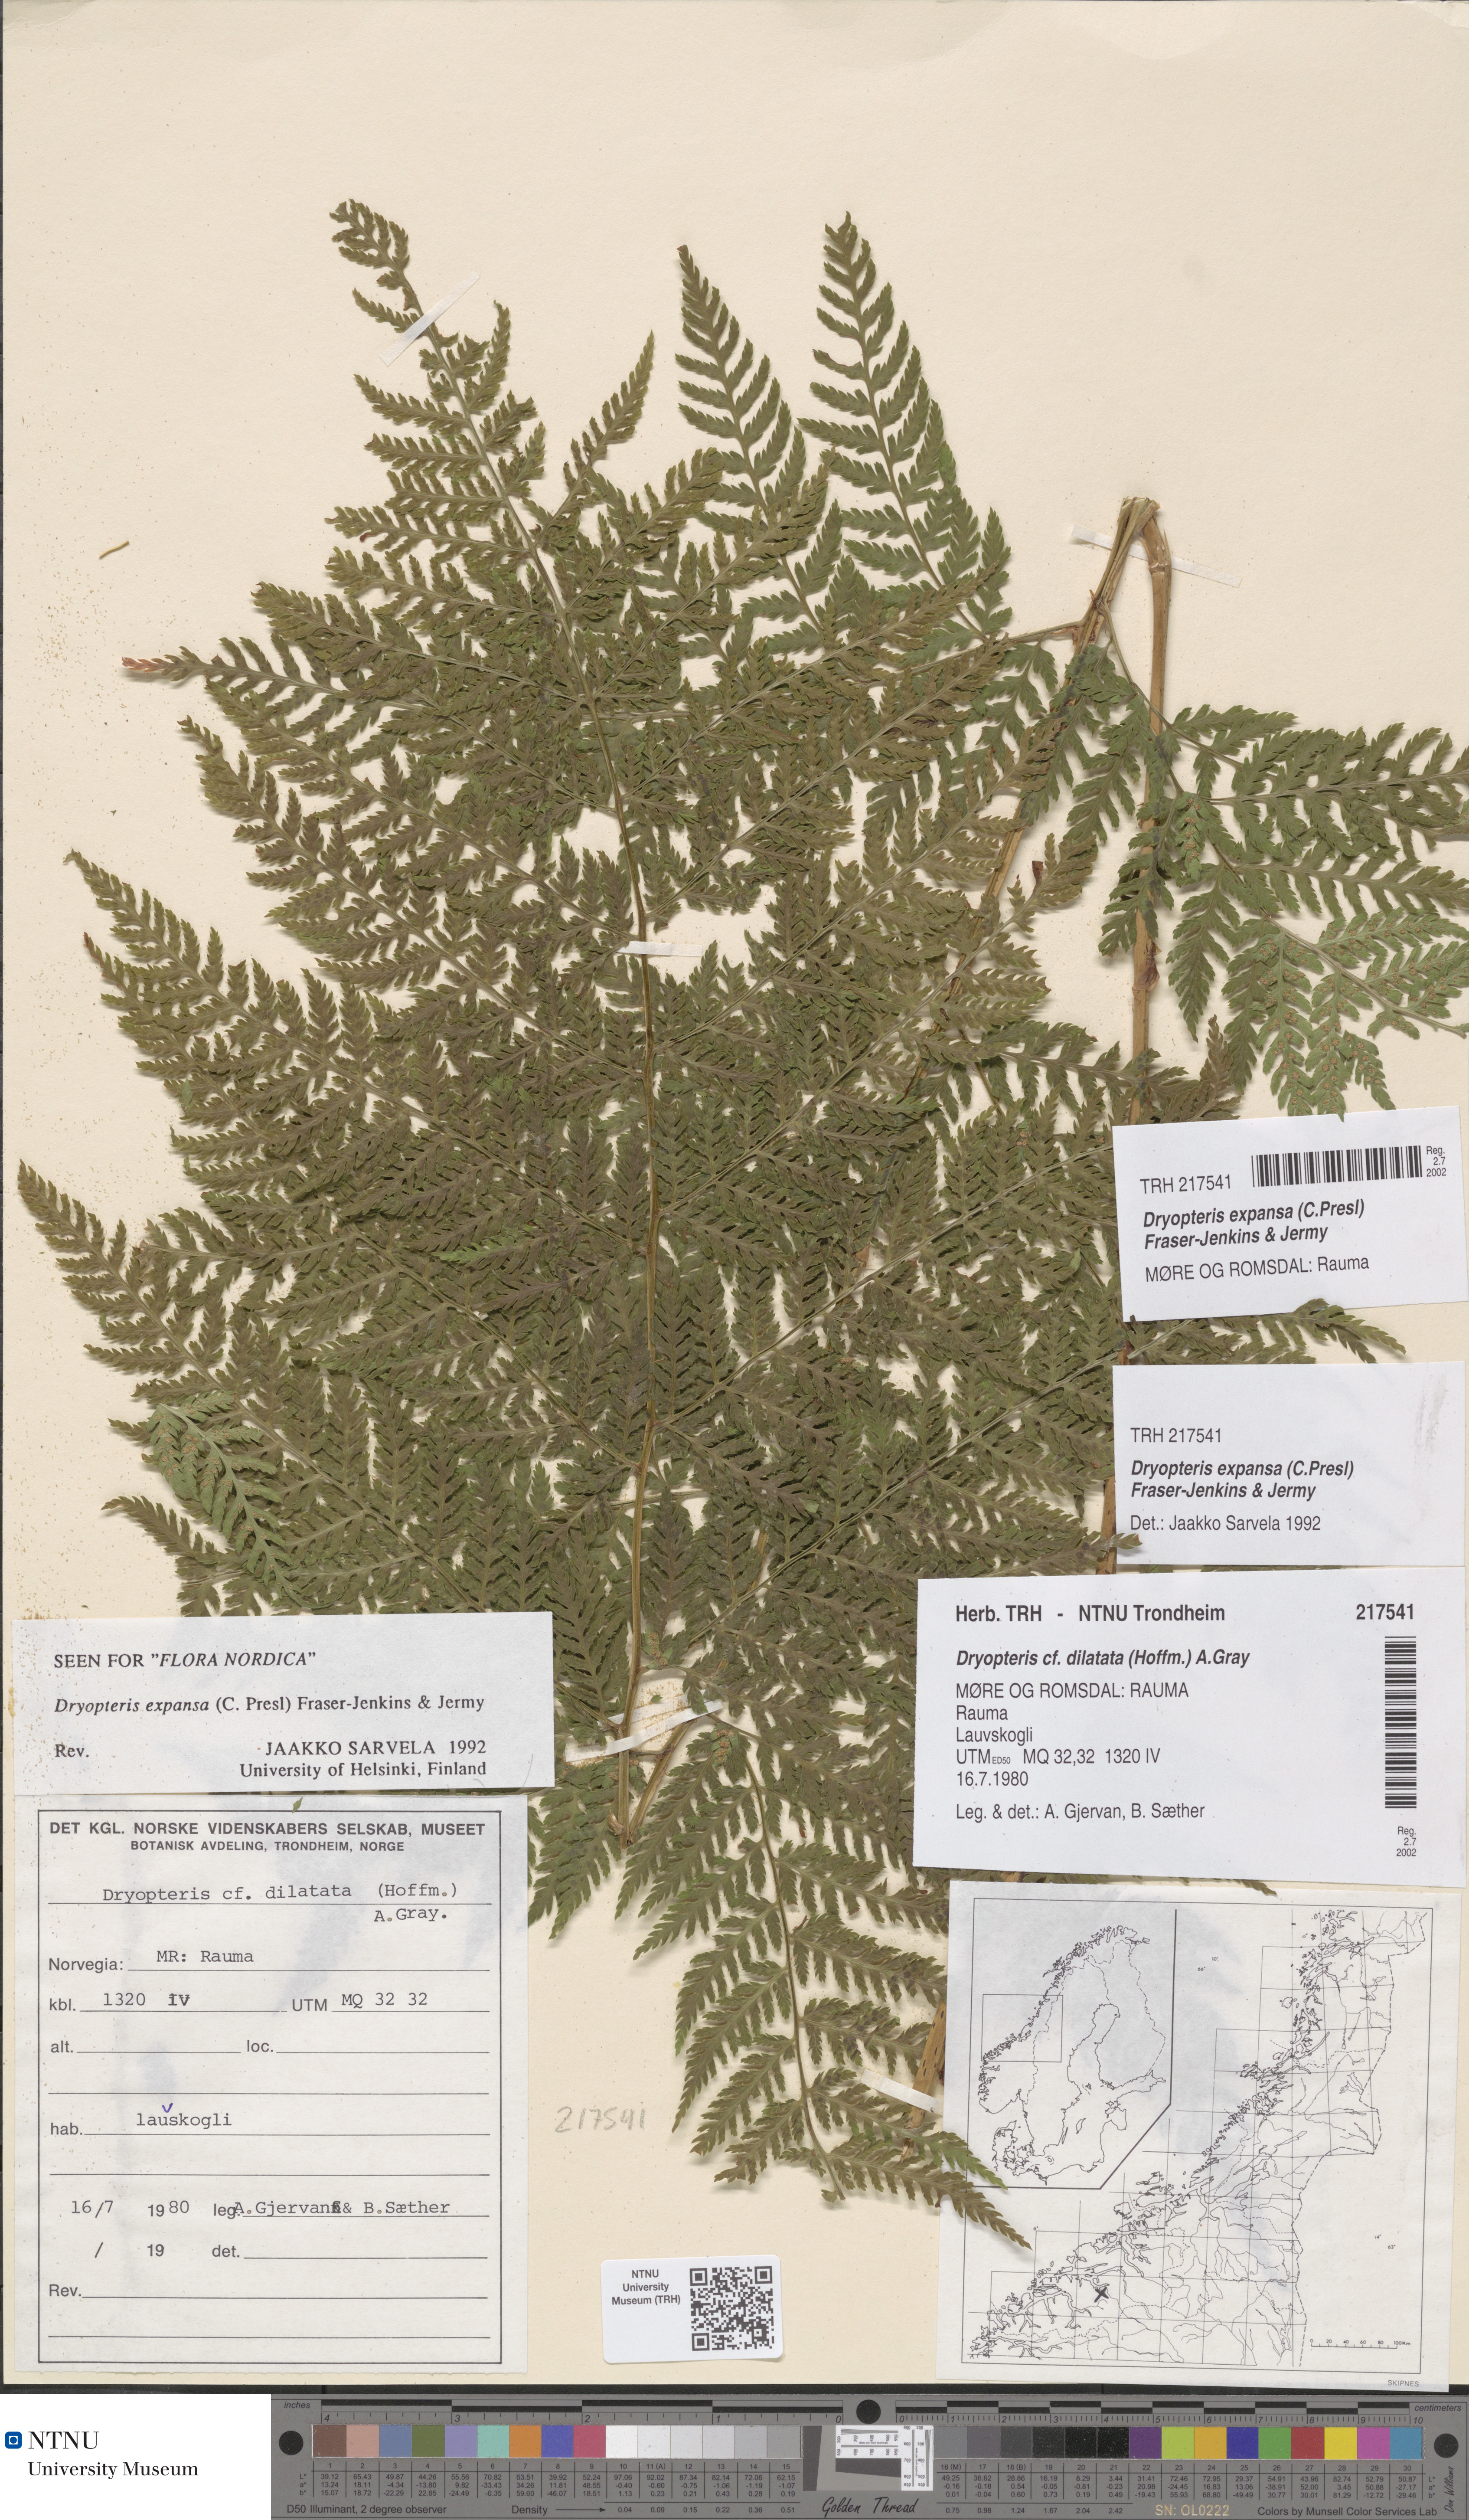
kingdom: Plantae
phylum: Tracheophyta
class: Polypodiopsida
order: Polypodiales
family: Dryopteridaceae
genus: Dryopteris
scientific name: Dryopteris expansa
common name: Northern buckler fern
